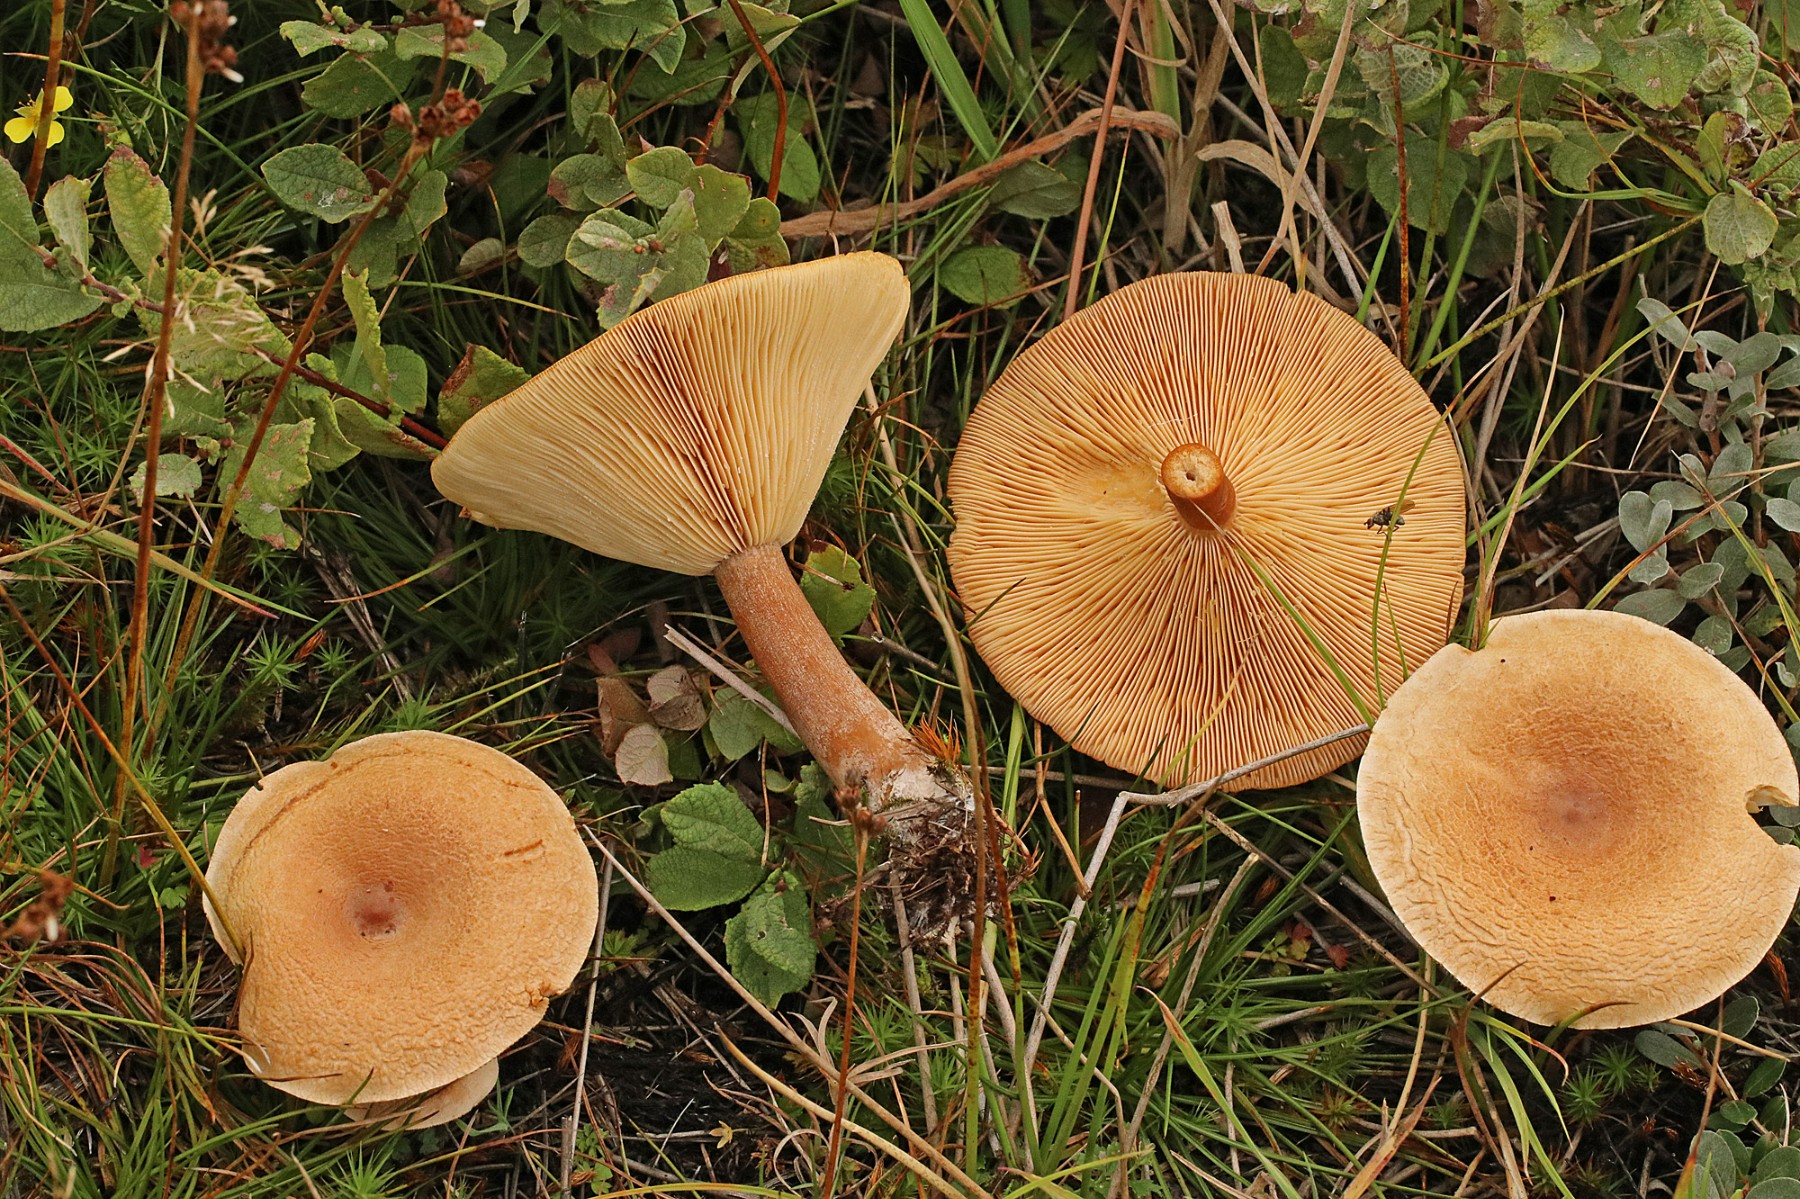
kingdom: Fungi
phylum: Basidiomycota
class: Agaricomycetes
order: Russulales
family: Russulaceae
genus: Lactarius
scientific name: Lactarius helvus
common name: mose-mælkehat
